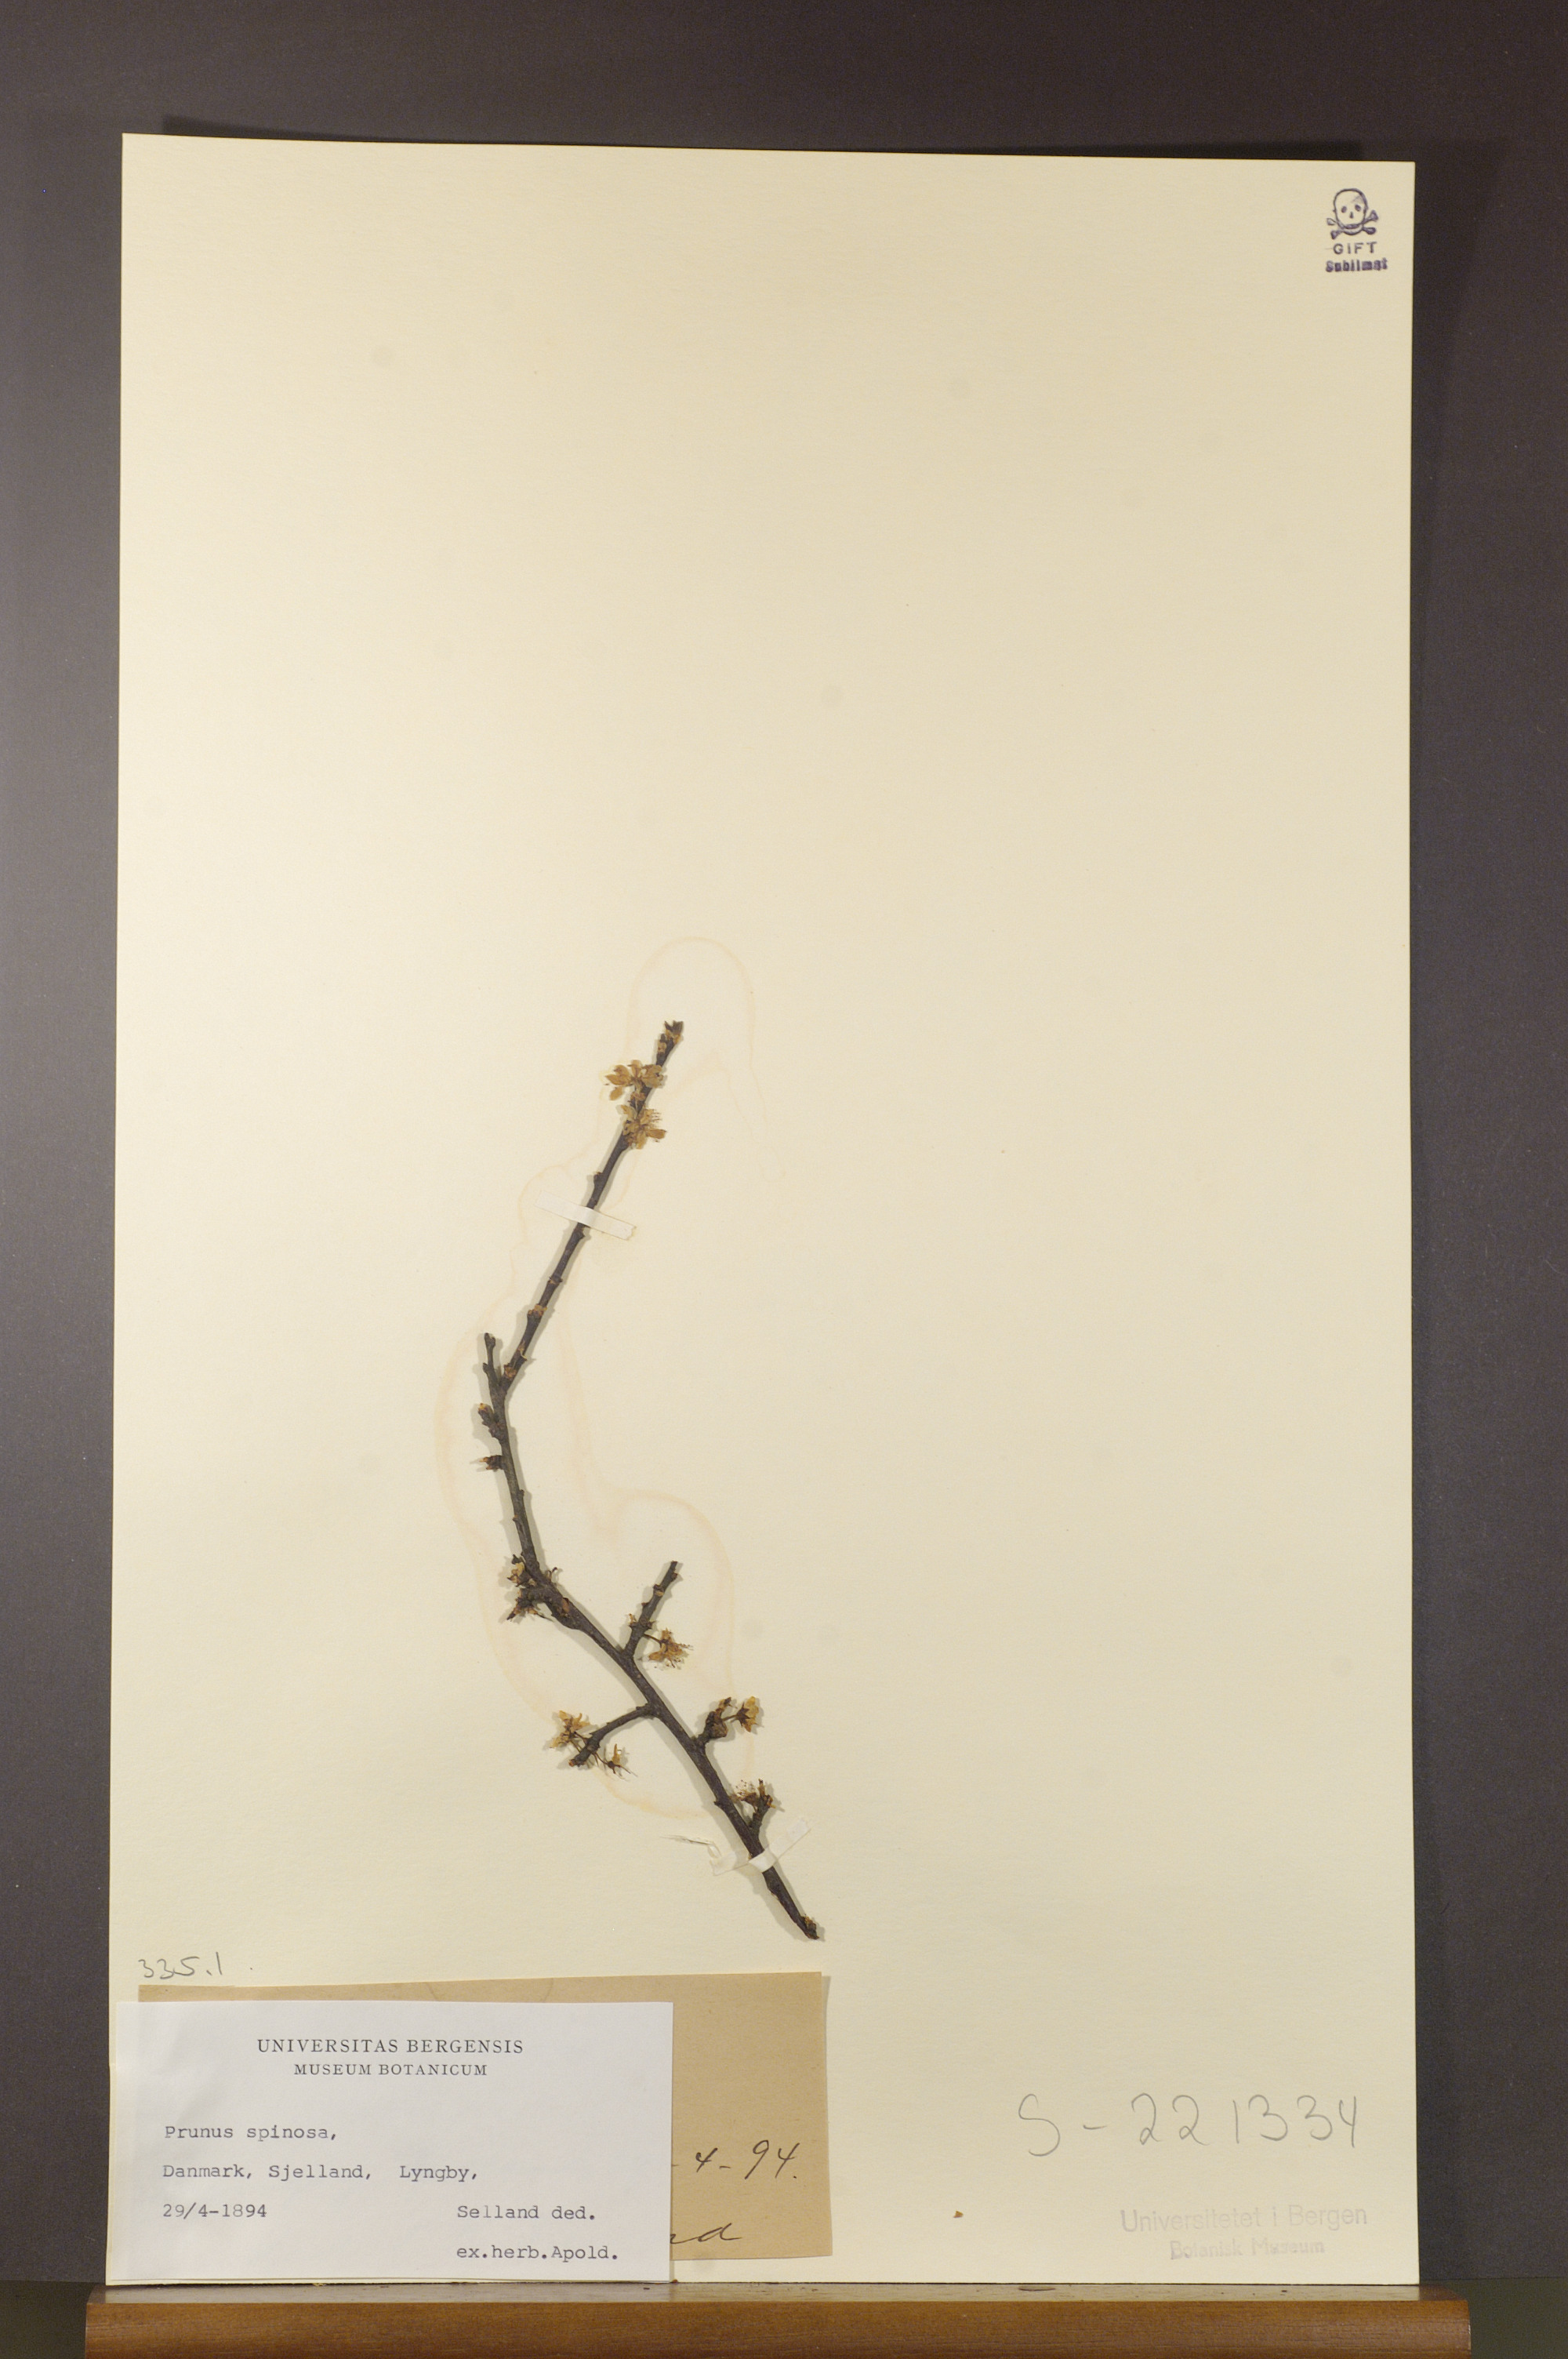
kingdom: Plantae
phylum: Tracheophyta
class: Magnoliopsida
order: Rosales
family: Rosaceae
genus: Prunus
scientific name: Prunus spinosa
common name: Blackthorn
